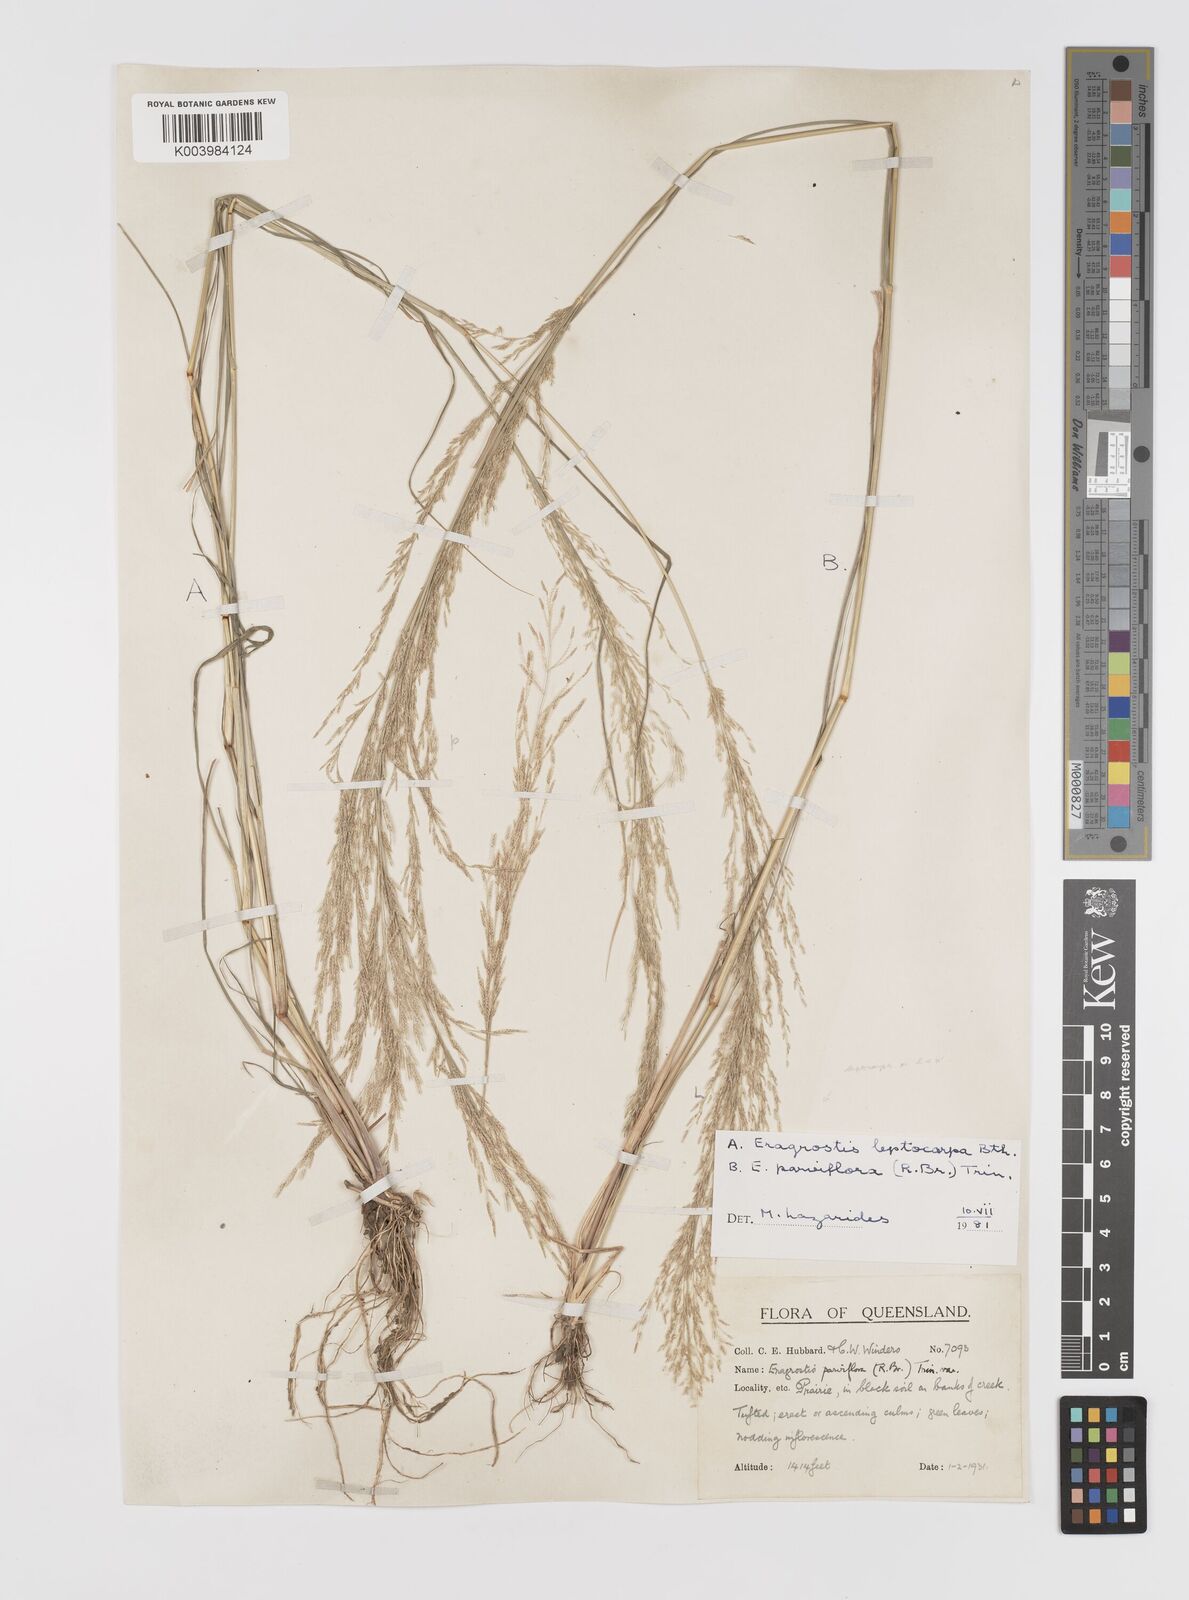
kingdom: Plantae
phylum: Tracheophyta
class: Liliopsida
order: Poales
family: Poaceae
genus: Eragrostis
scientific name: Eragrostis parviflora
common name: Weeping love-grass
